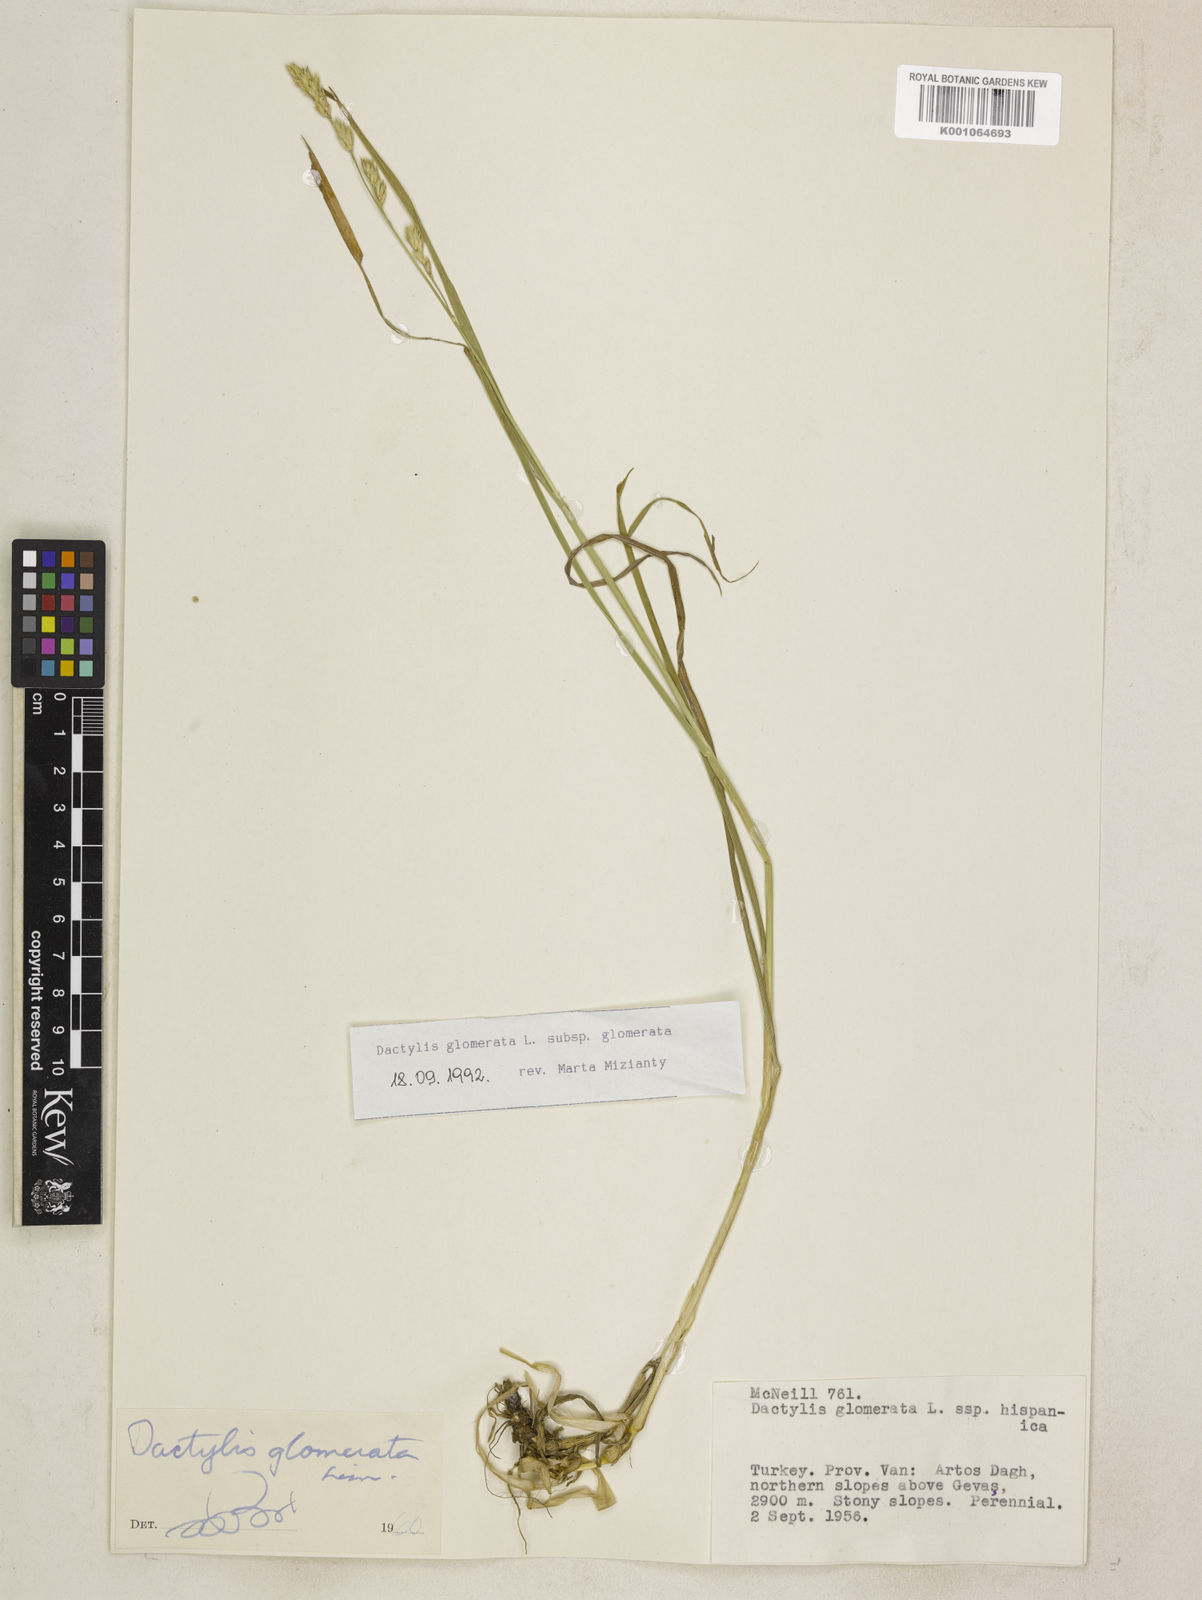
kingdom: Plantae
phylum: Tracheophyta
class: Liliopsida
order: Poales
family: Poaceae
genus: Dactylis
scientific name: Dactylis glomerata
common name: Orchardgrass
